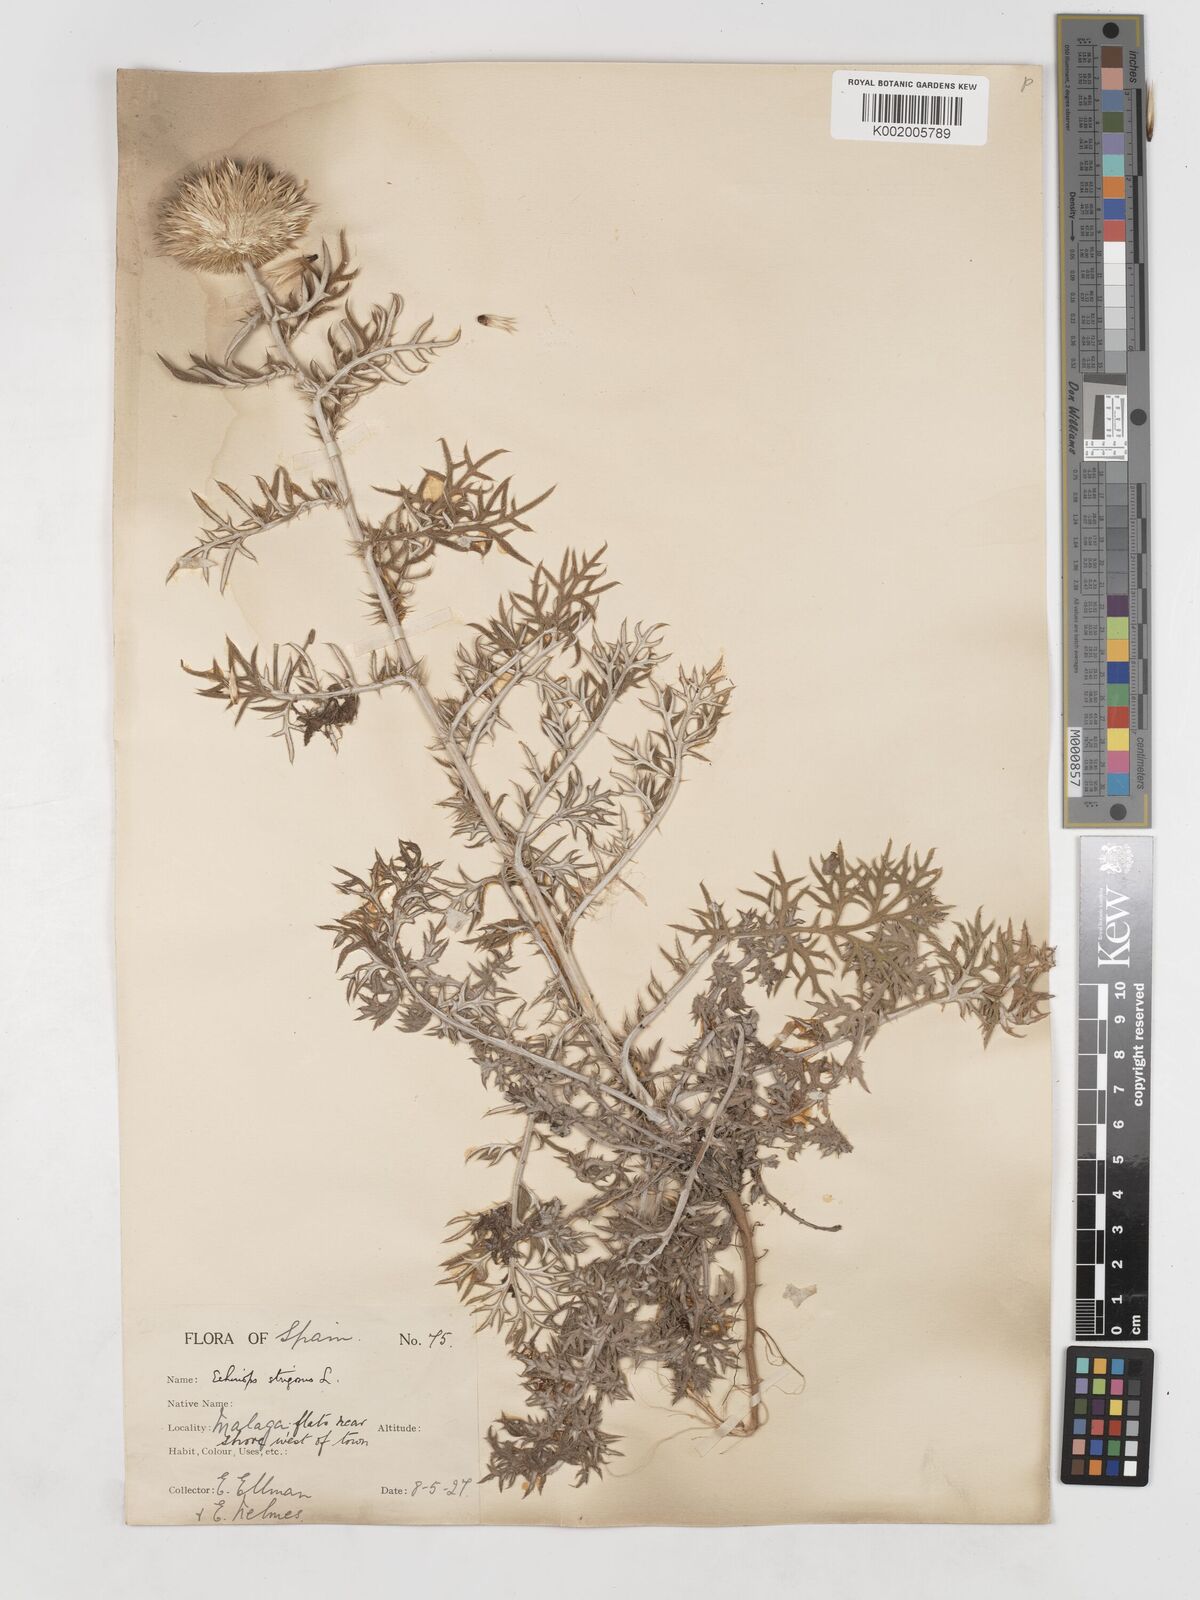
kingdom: Plantae
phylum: Tracheophyta
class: Magnoliopsida
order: Asterales
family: Asteraceae
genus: Echinops
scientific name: Echinops strigosus
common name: Rough-leaf globe thistle
